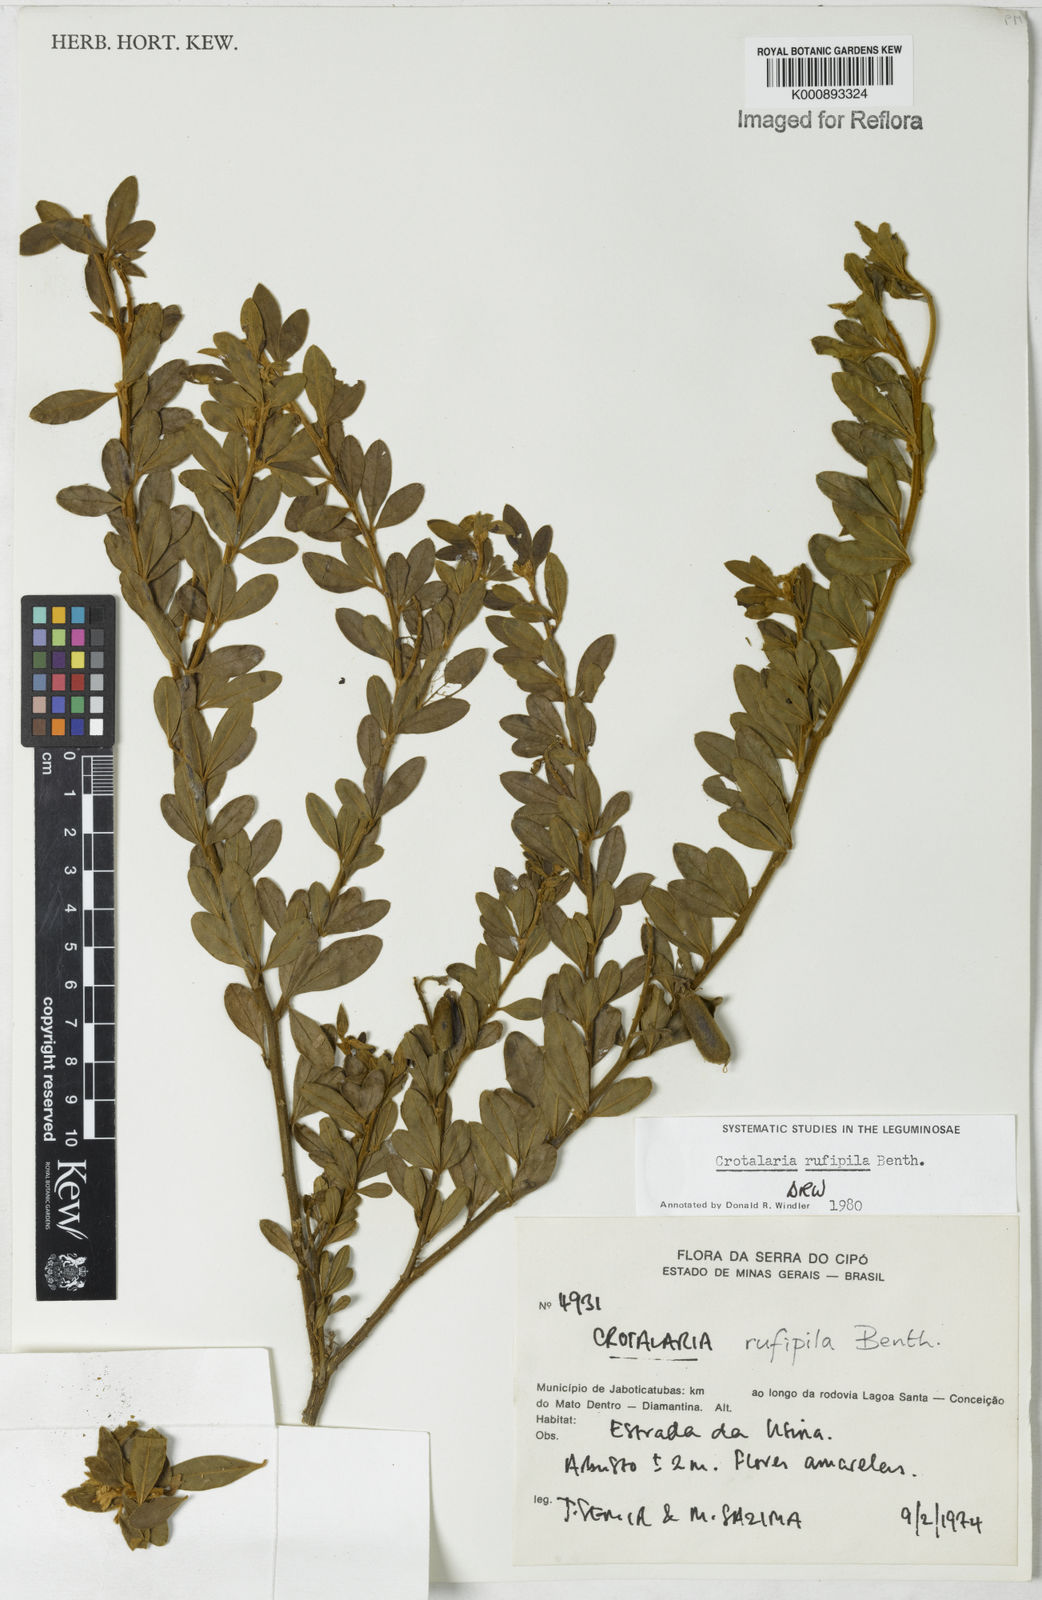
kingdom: Plantae
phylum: Tracheophyta
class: Magnoliopsida
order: Fabales
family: Fabaceae
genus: Crotalaria
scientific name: Crotalaria rufipila
